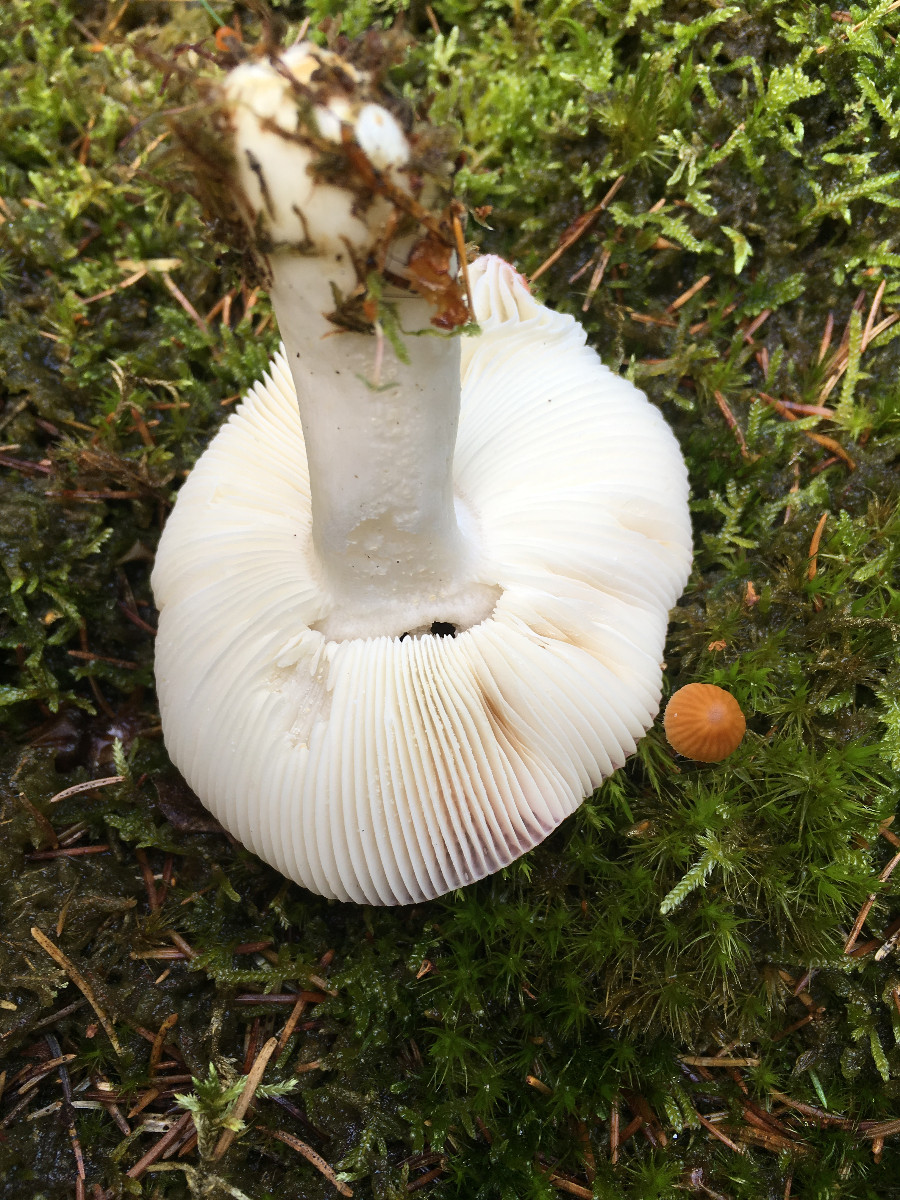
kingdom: Fungi
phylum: Basidiomycota
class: Agaricomycetes
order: Russulales
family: Russulaceae
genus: Russula
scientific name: Russula
